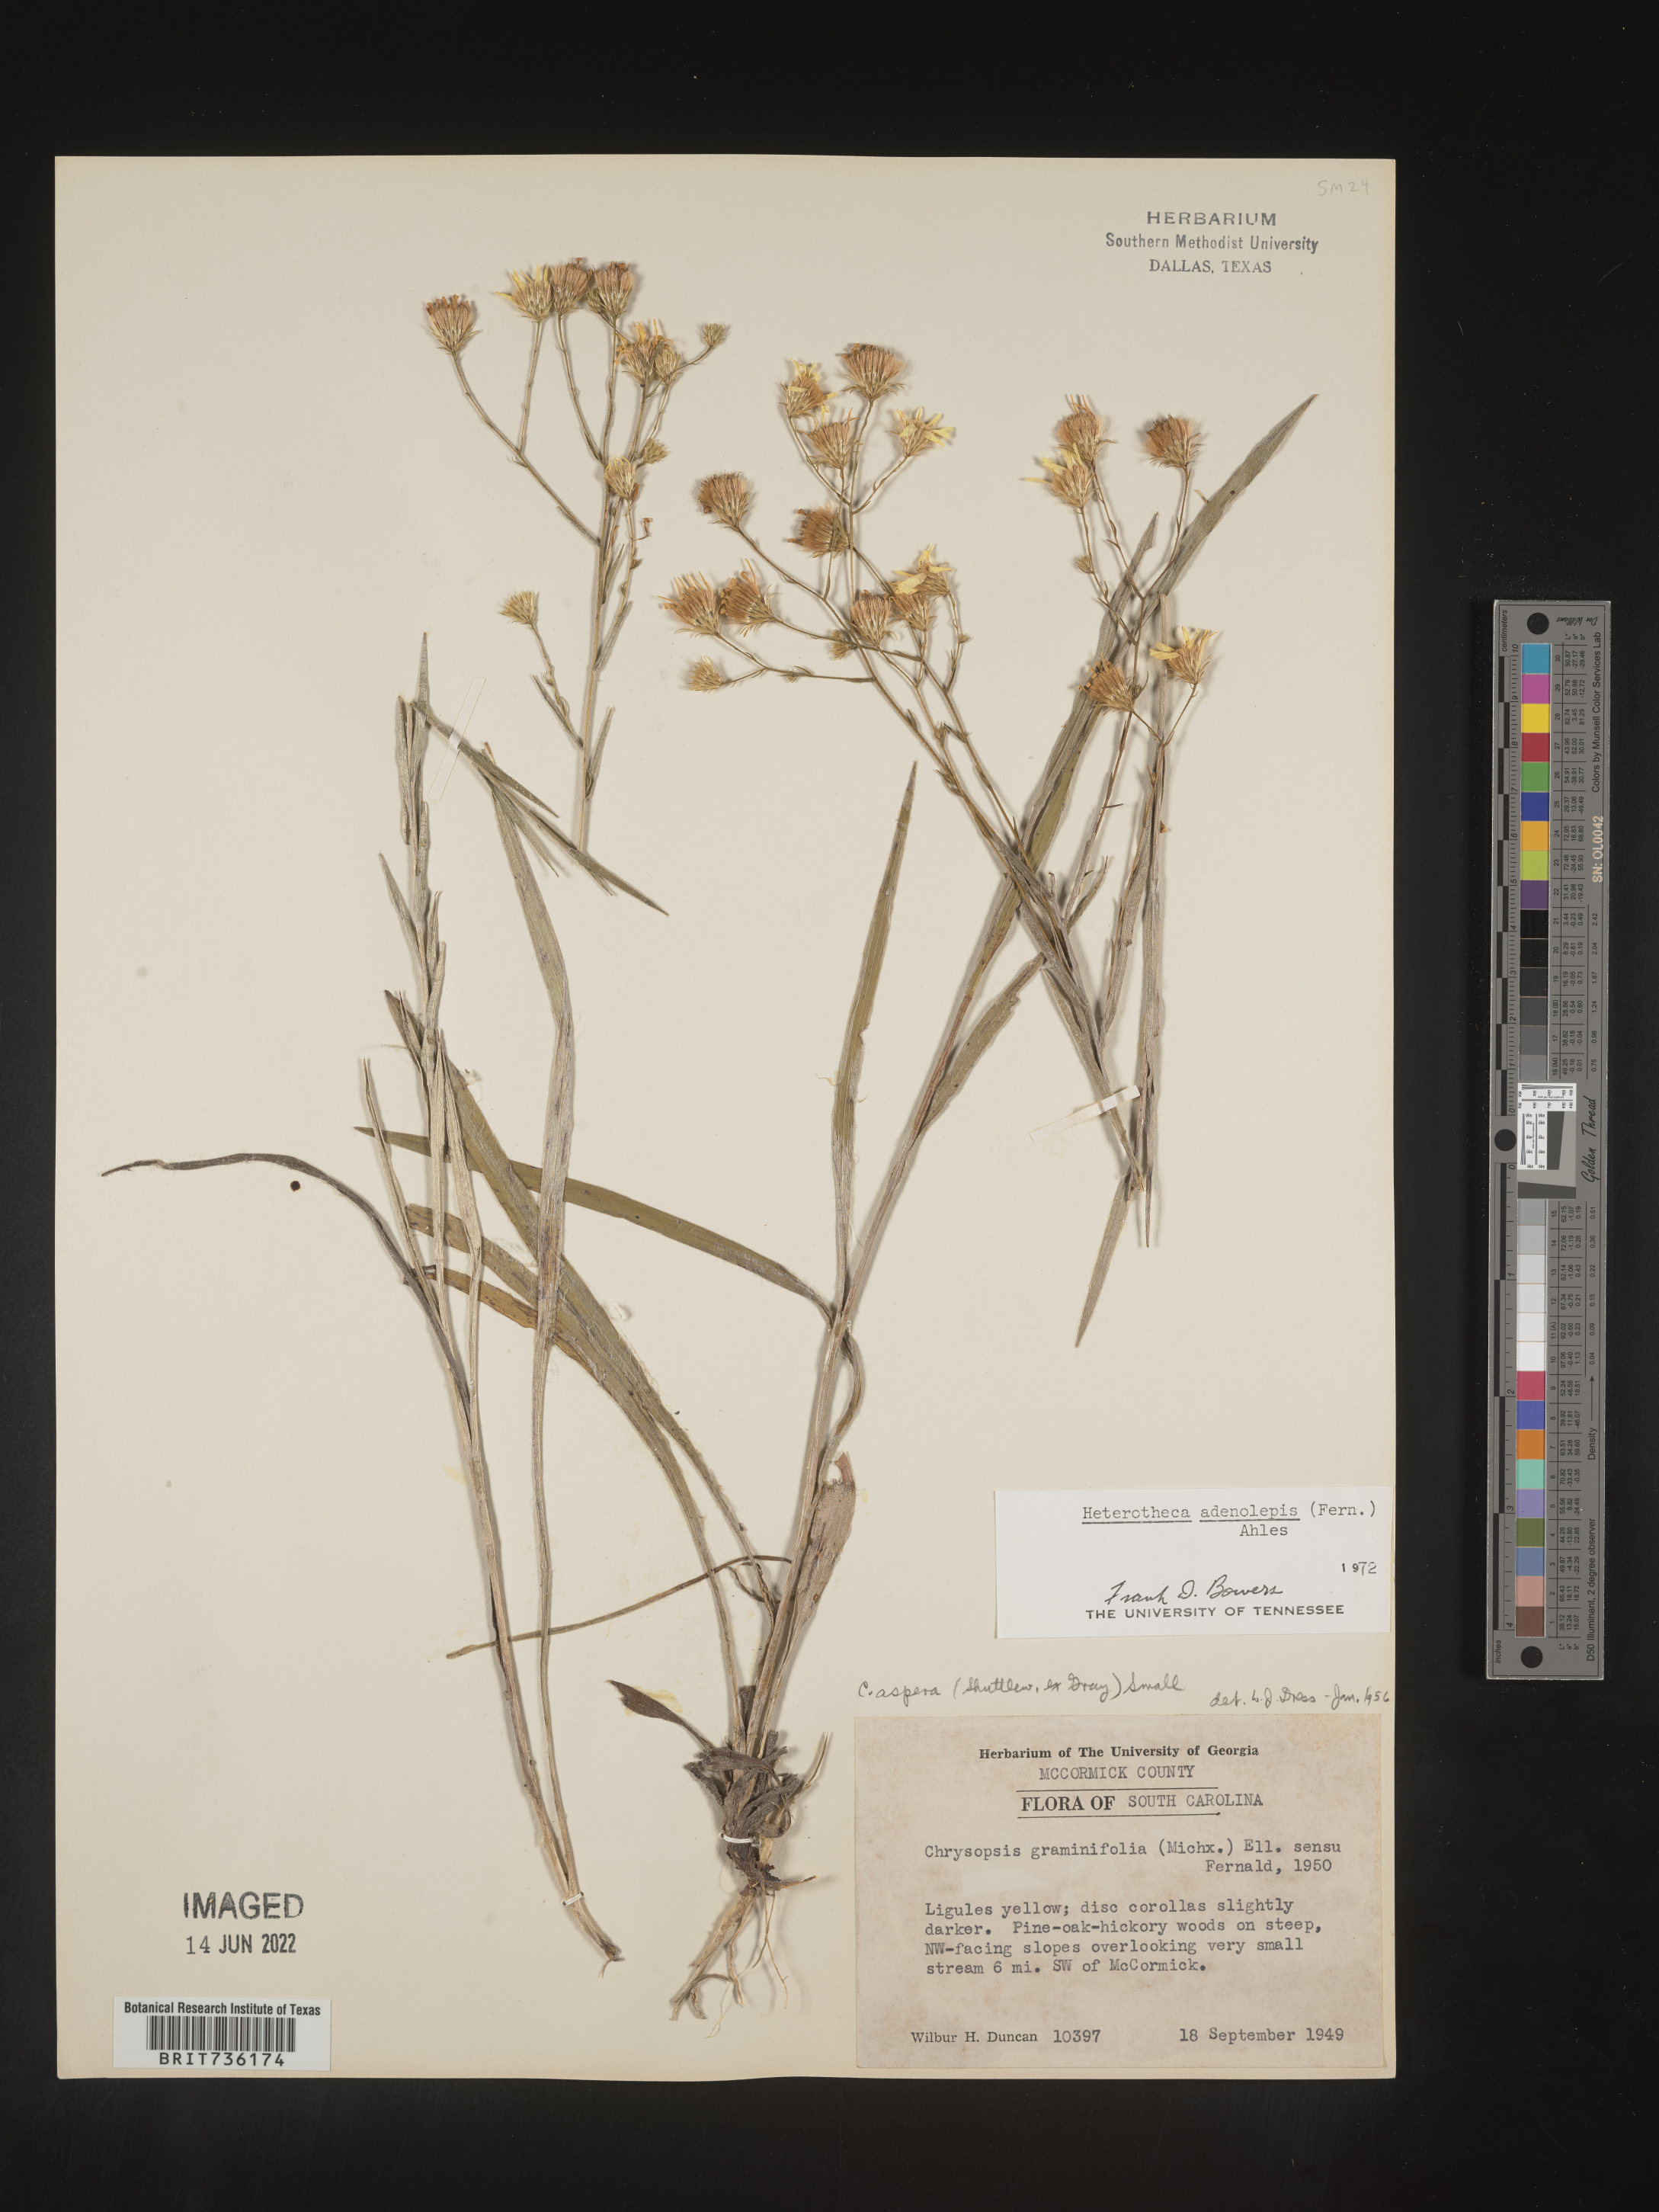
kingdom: Plantae
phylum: Tracheophyta
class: Magnoliopsida
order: Asterales
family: Asteraceae
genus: Pityopsis
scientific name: Pityopsis aspera
